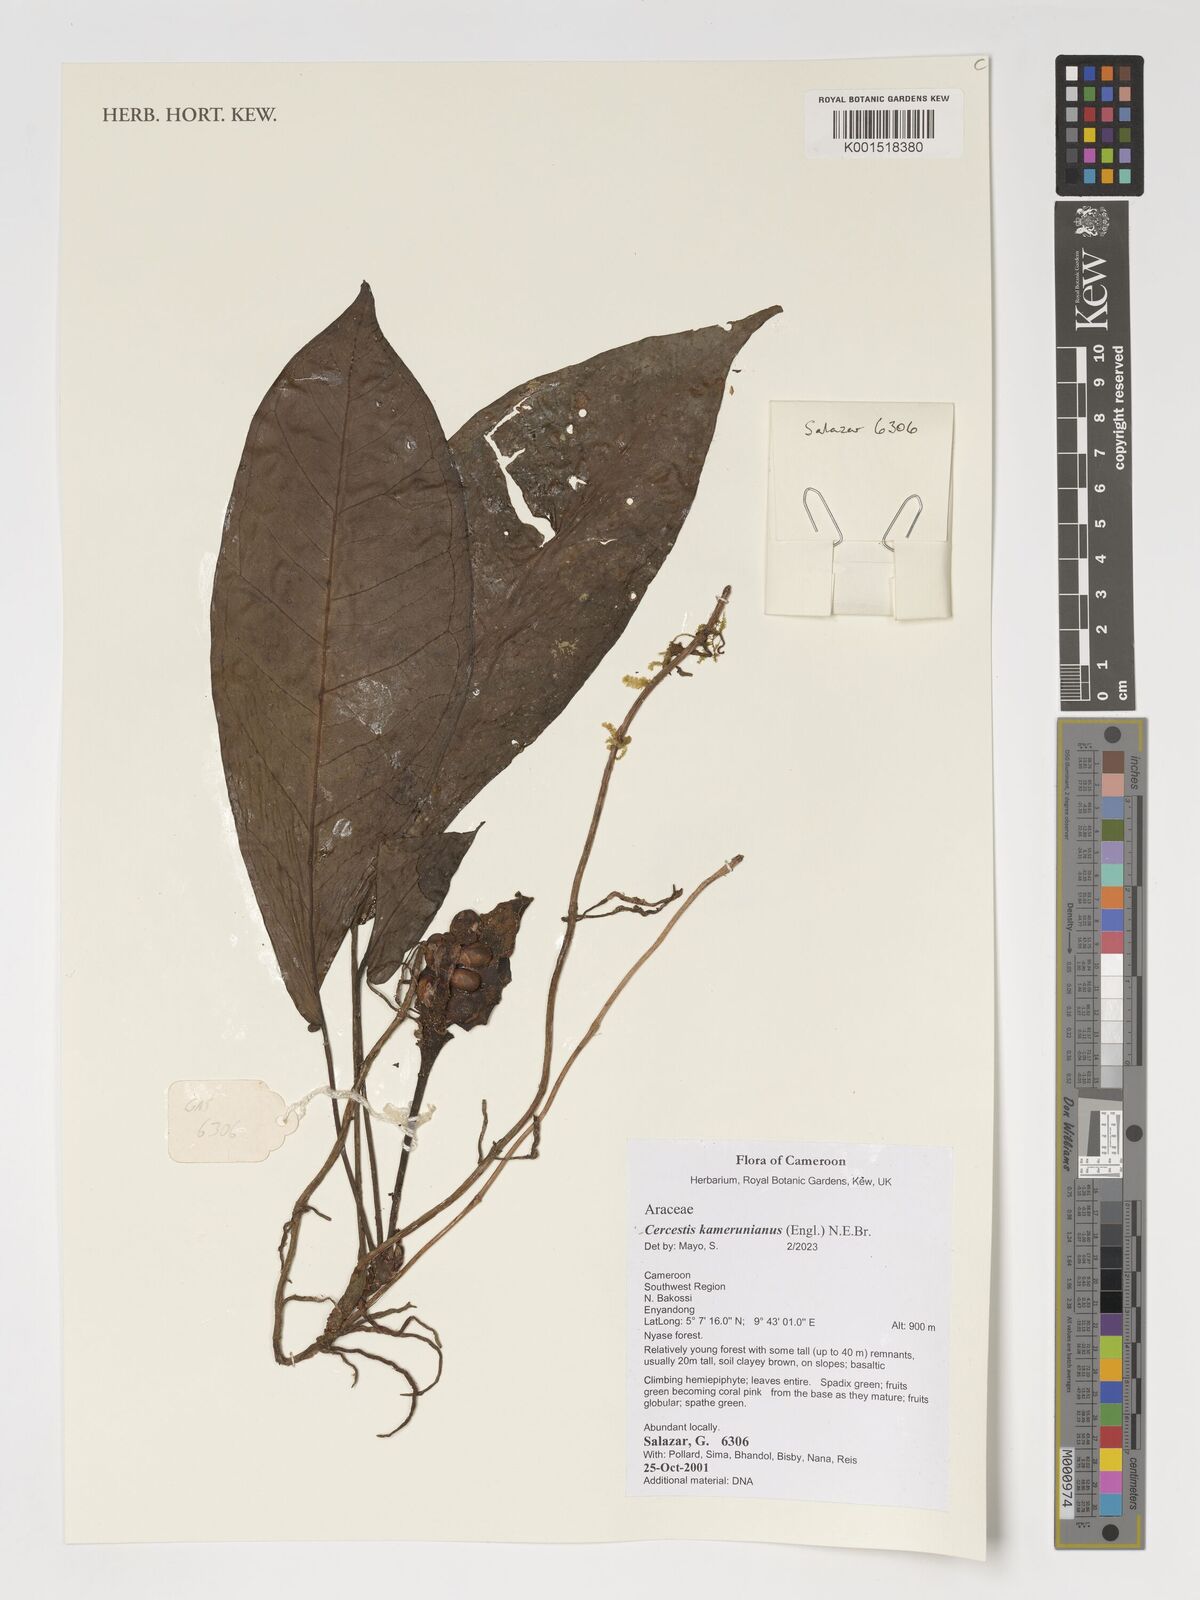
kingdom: Plantae
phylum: Tracheophyta
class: Liliopsida
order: Alismatales
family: Araceae
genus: Cercestis
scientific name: Cercestis kamerunianus
